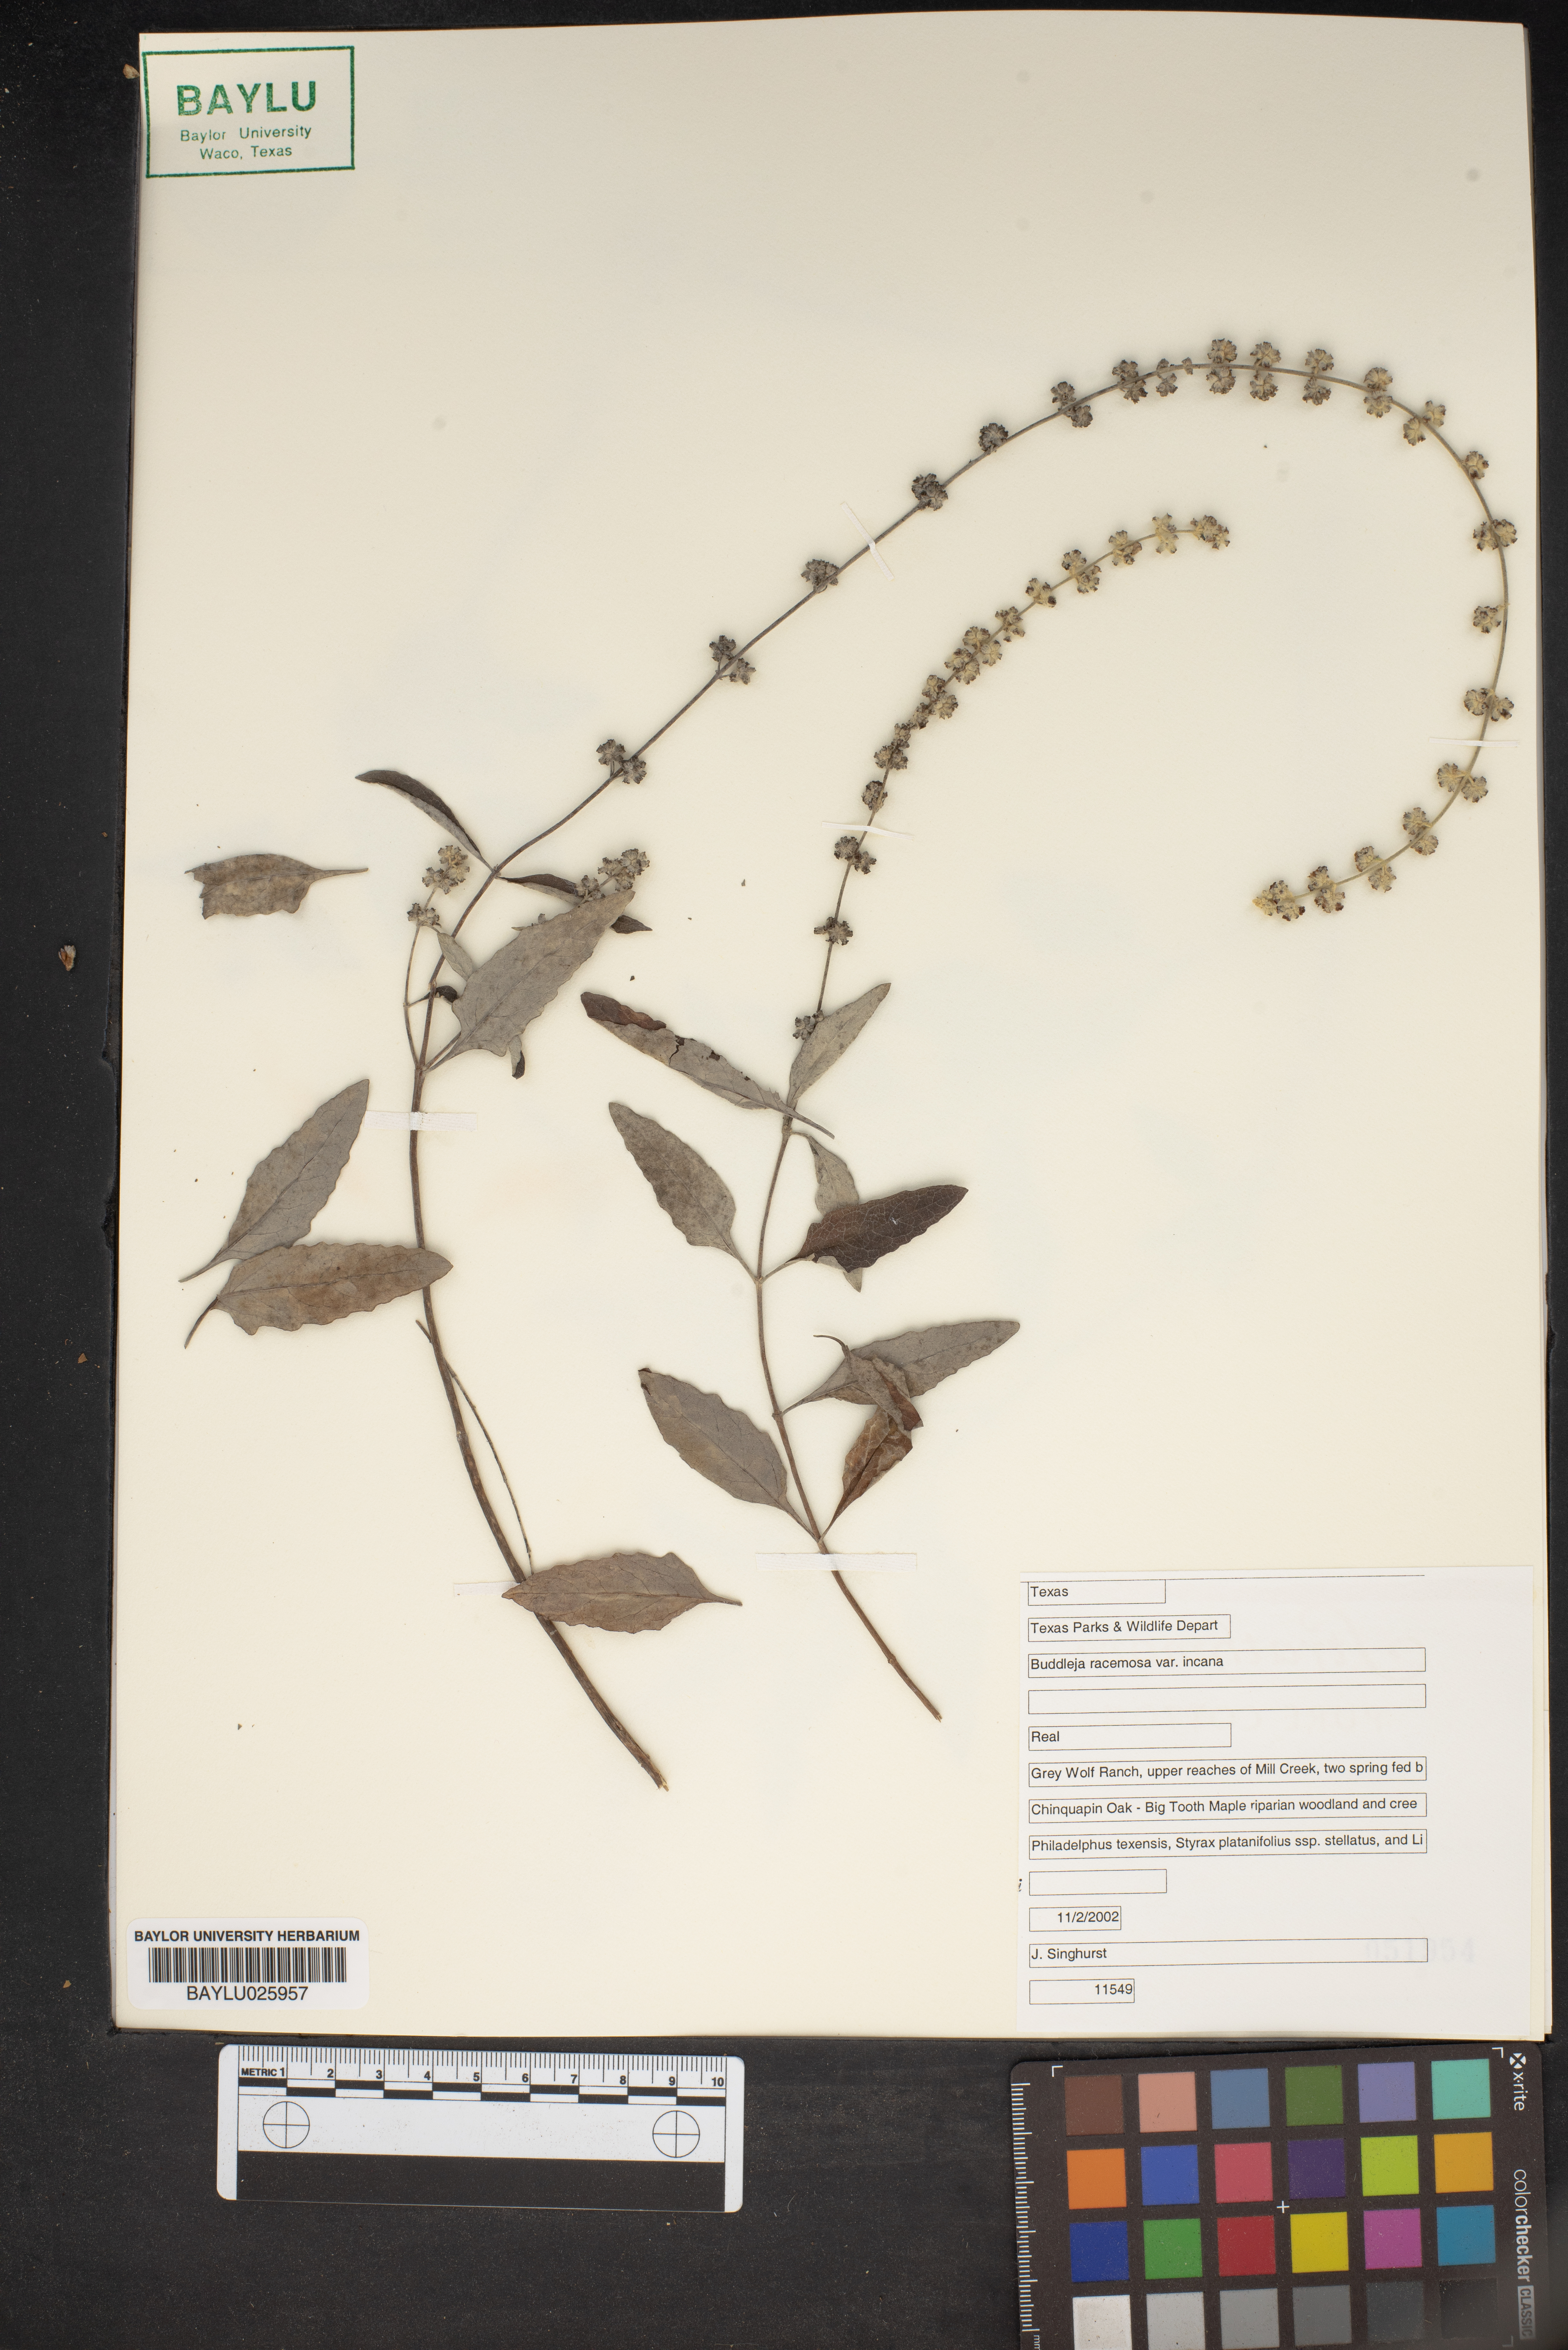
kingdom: Plantae
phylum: Tracheophyta
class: Magnoliopsida
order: Lamiales
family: Scrophulariaceae
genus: Buddleja
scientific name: Buddleja racemosa
